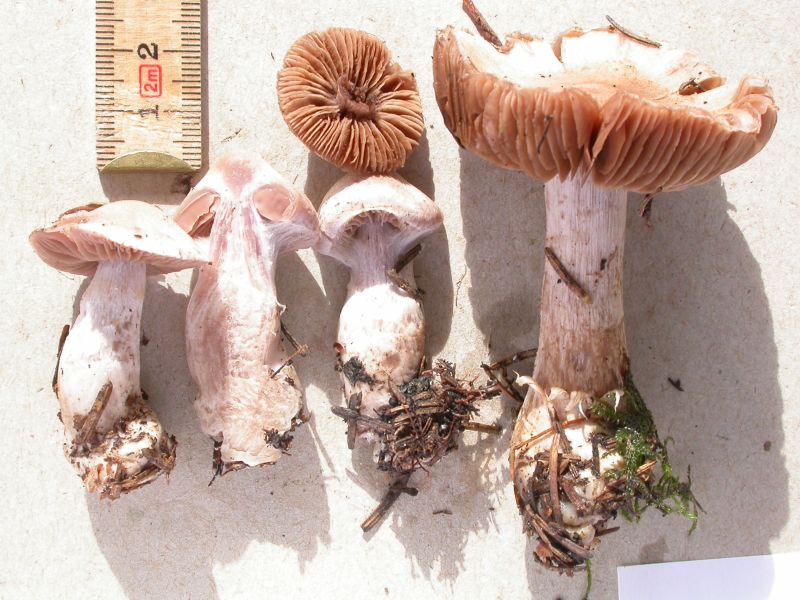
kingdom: Fungi
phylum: Basidiomycota
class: Agaricomycetes
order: Agaricales
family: Cortinariaceae
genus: Cortinarius
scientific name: Cortinarius malachius
